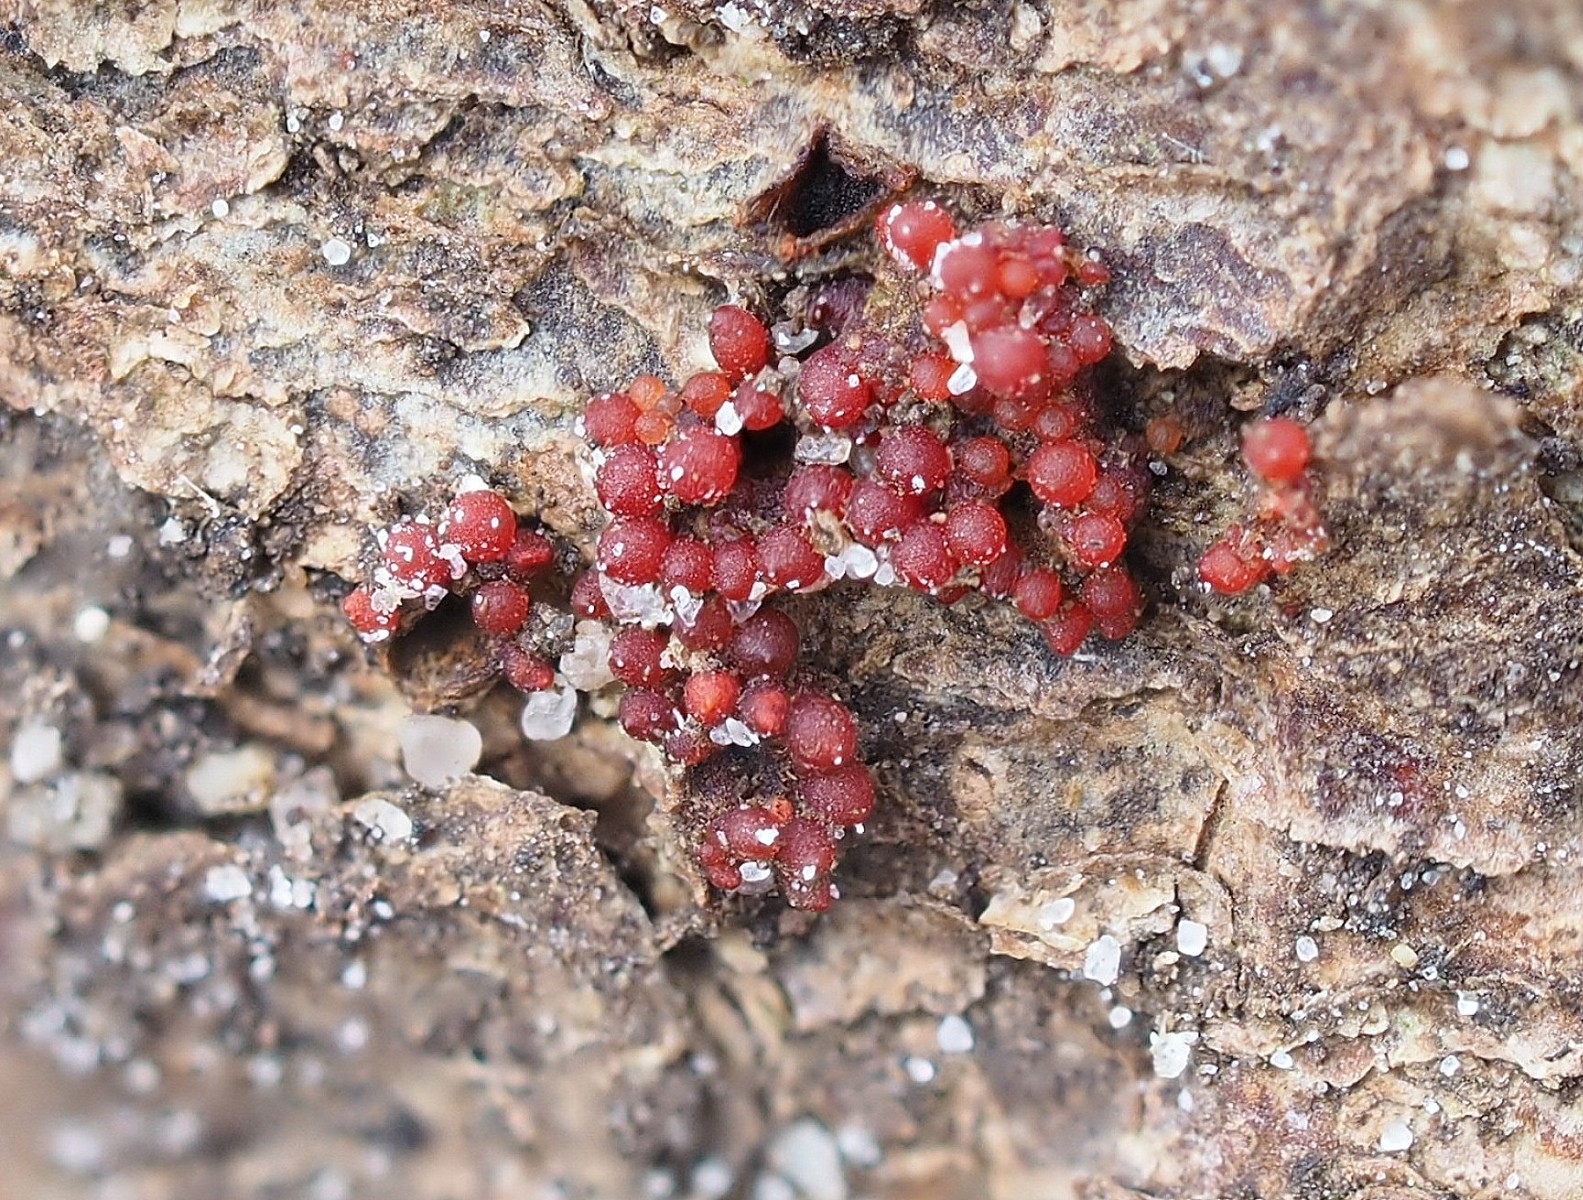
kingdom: Fungi
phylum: Ascomycota
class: Sordariomycetes
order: Hypocreales
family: Nectriaceae
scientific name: Nectriaceae
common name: cinnobersvampfamilien
